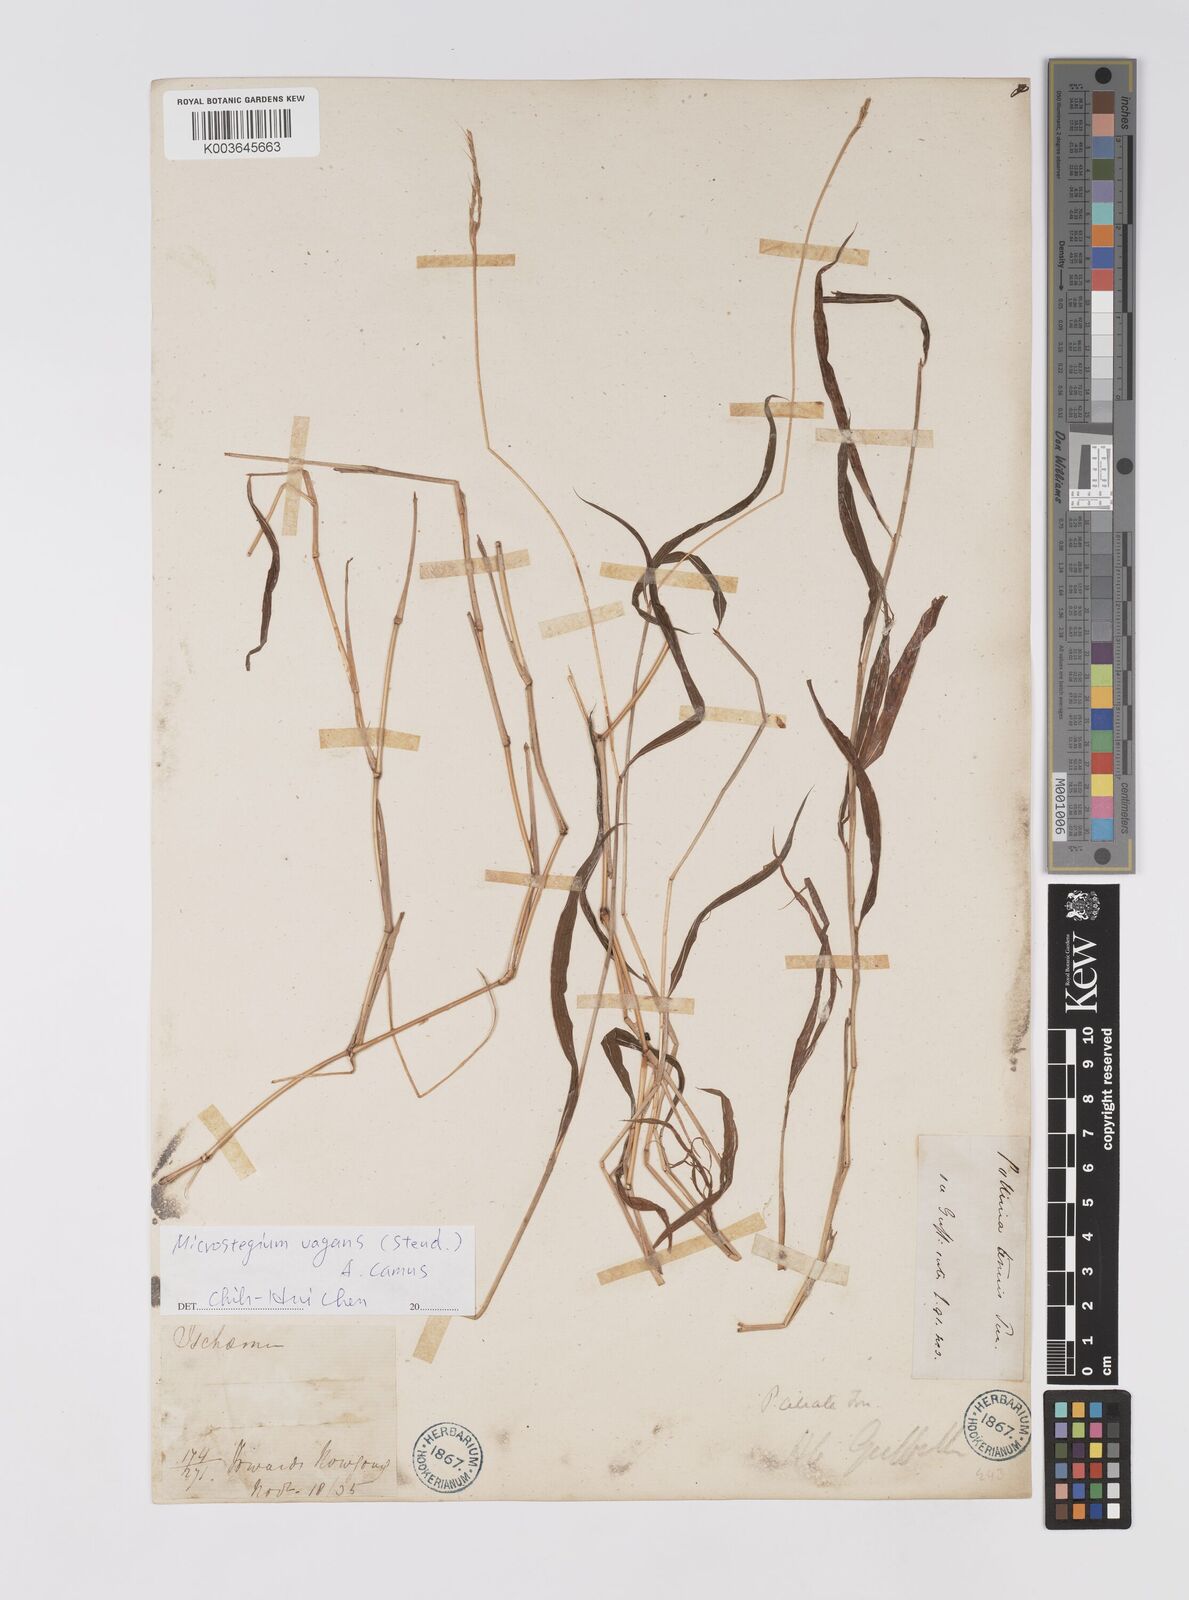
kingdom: Plantae
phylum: Tracheophyta
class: Liliopsida
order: Poales
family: Poaceae
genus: Microstegium
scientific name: Microstegium fasciculatum
